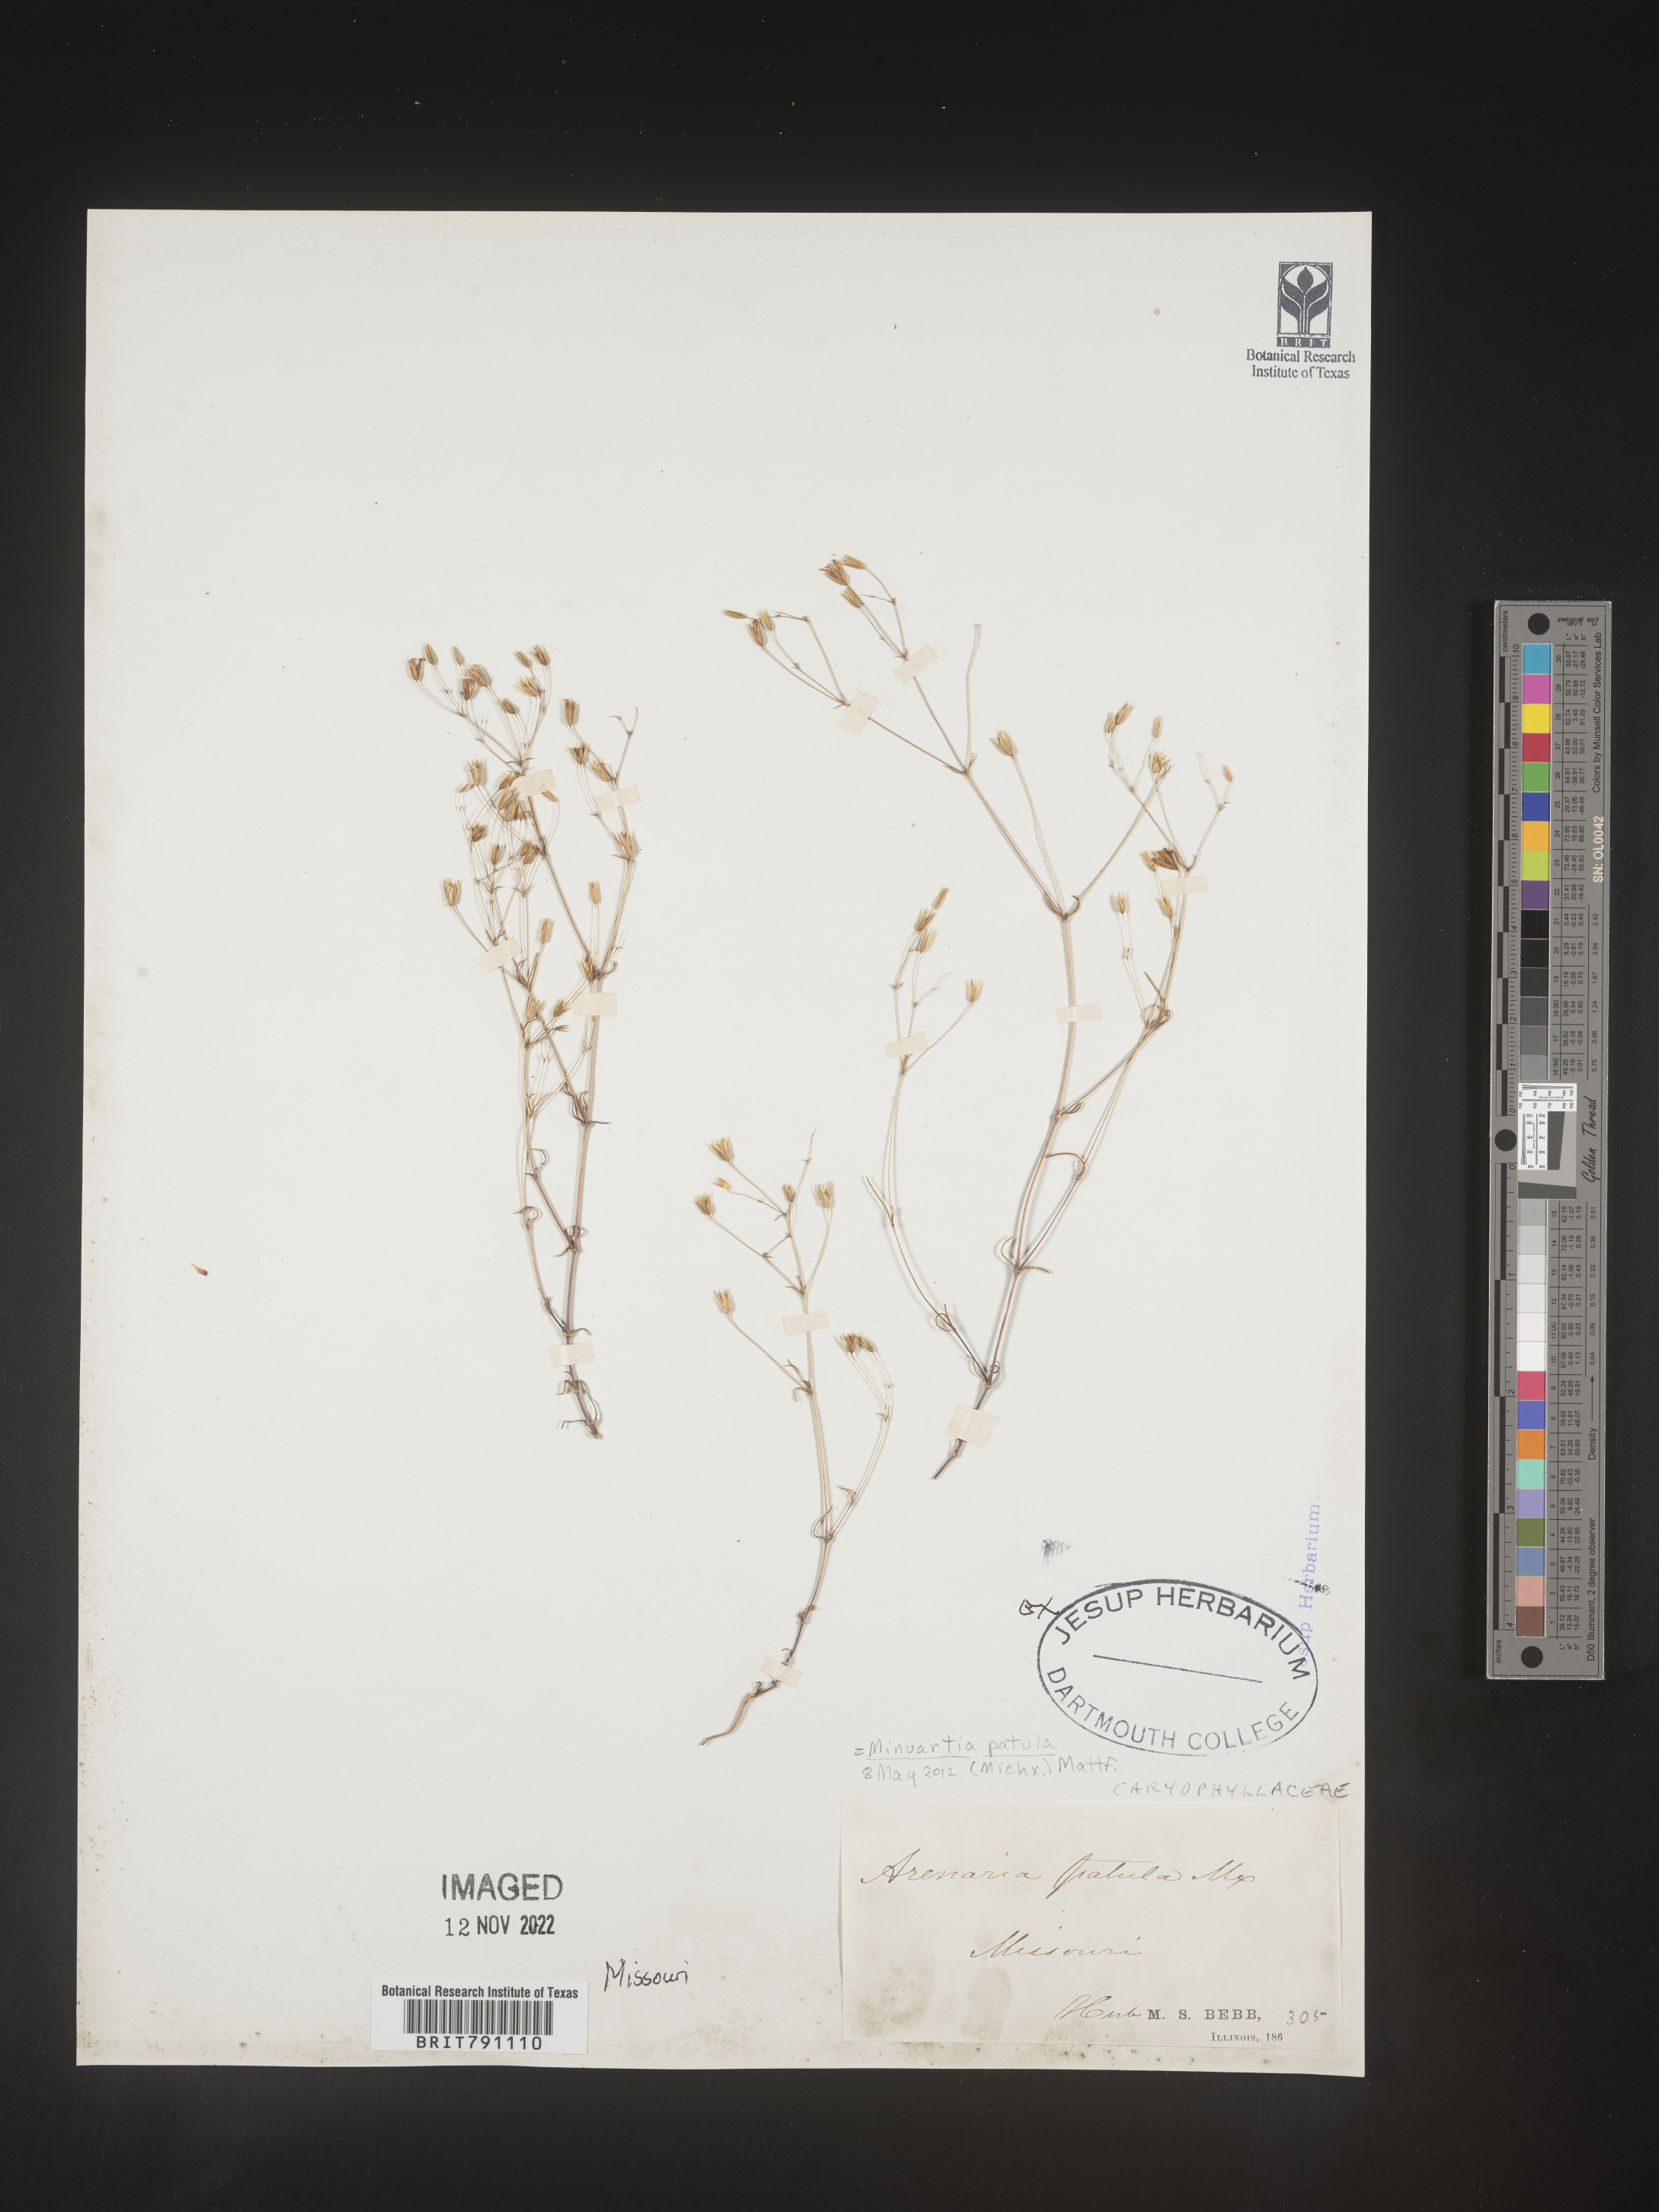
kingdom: Plantae
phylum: Tracheophyta
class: Magnoliopsida
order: Caryophyllales
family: Caryophyllaceae
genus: Mononeuria
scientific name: Mononeuria patula
